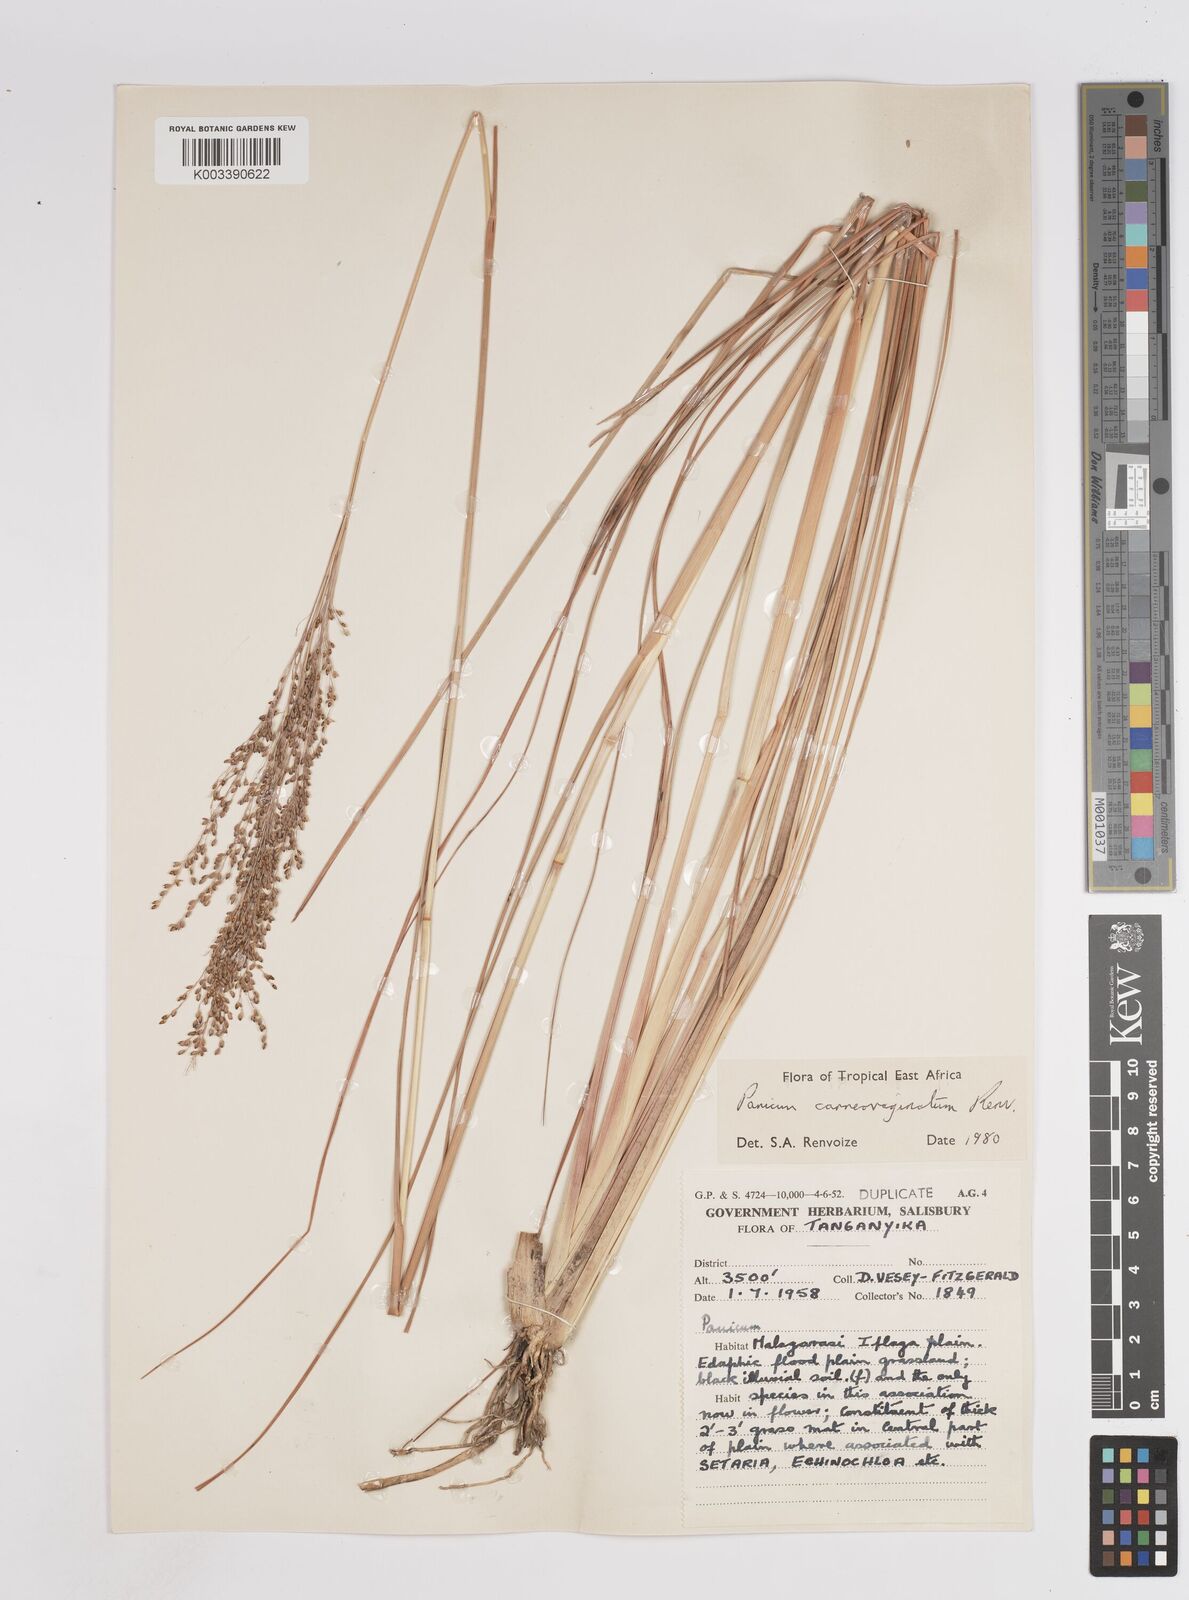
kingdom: Plantae
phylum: Tracheophyta
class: Liliopsida
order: Poales
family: Poaceae
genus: Panicum
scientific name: Panicum carneovaginatum
